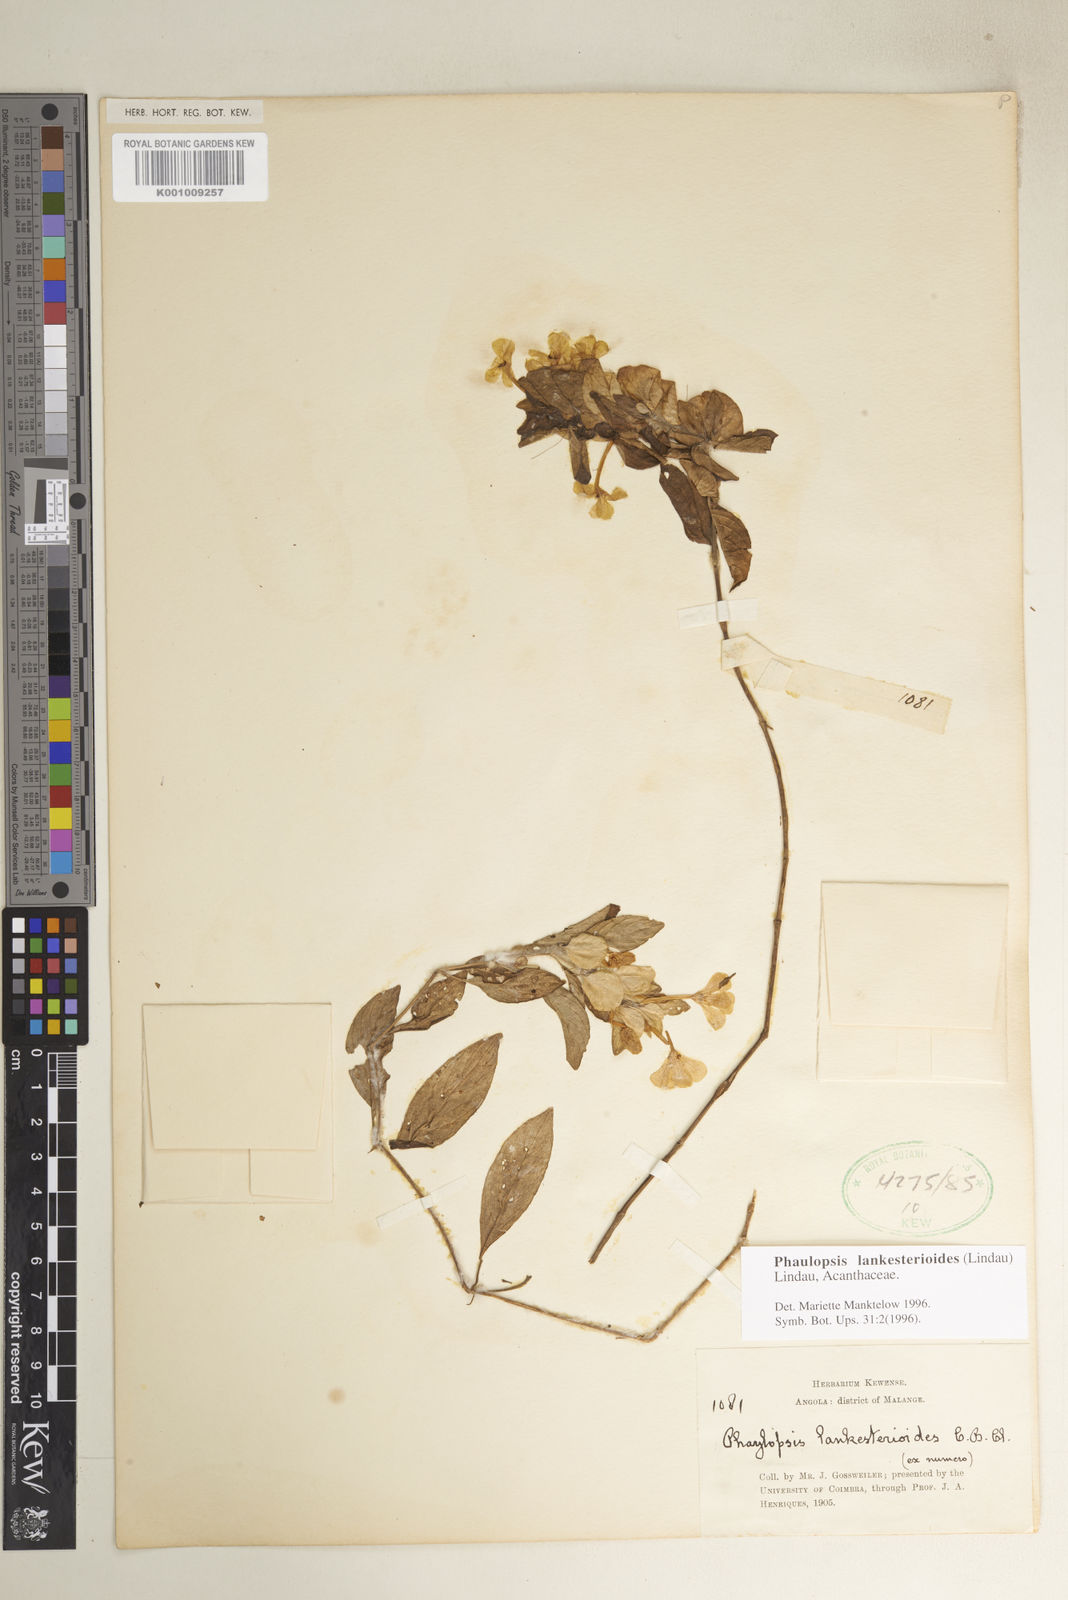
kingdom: Plantae
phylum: Tracheophyta
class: Magnoliopsida
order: Lamiales
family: Acanthaceae
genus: Phaulopsis
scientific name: Phaulopsis lankesterioides
